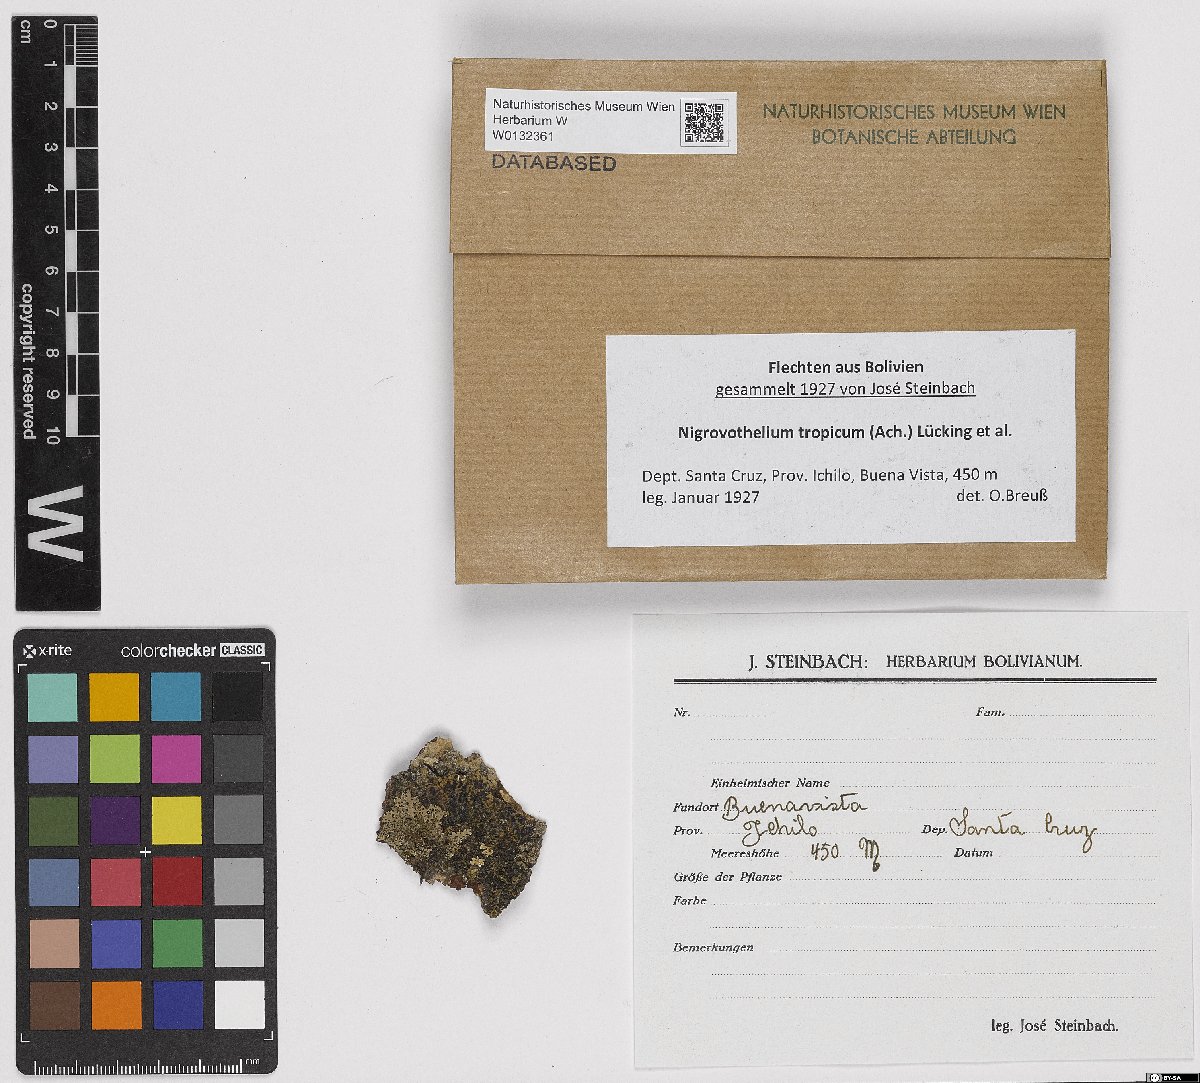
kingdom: Fungi
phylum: Ascomycota
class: Dothideomycetes
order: Trypetheliales
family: Trypetheliaceae
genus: Nigrovothelium
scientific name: Nigrovothelium tropicum
